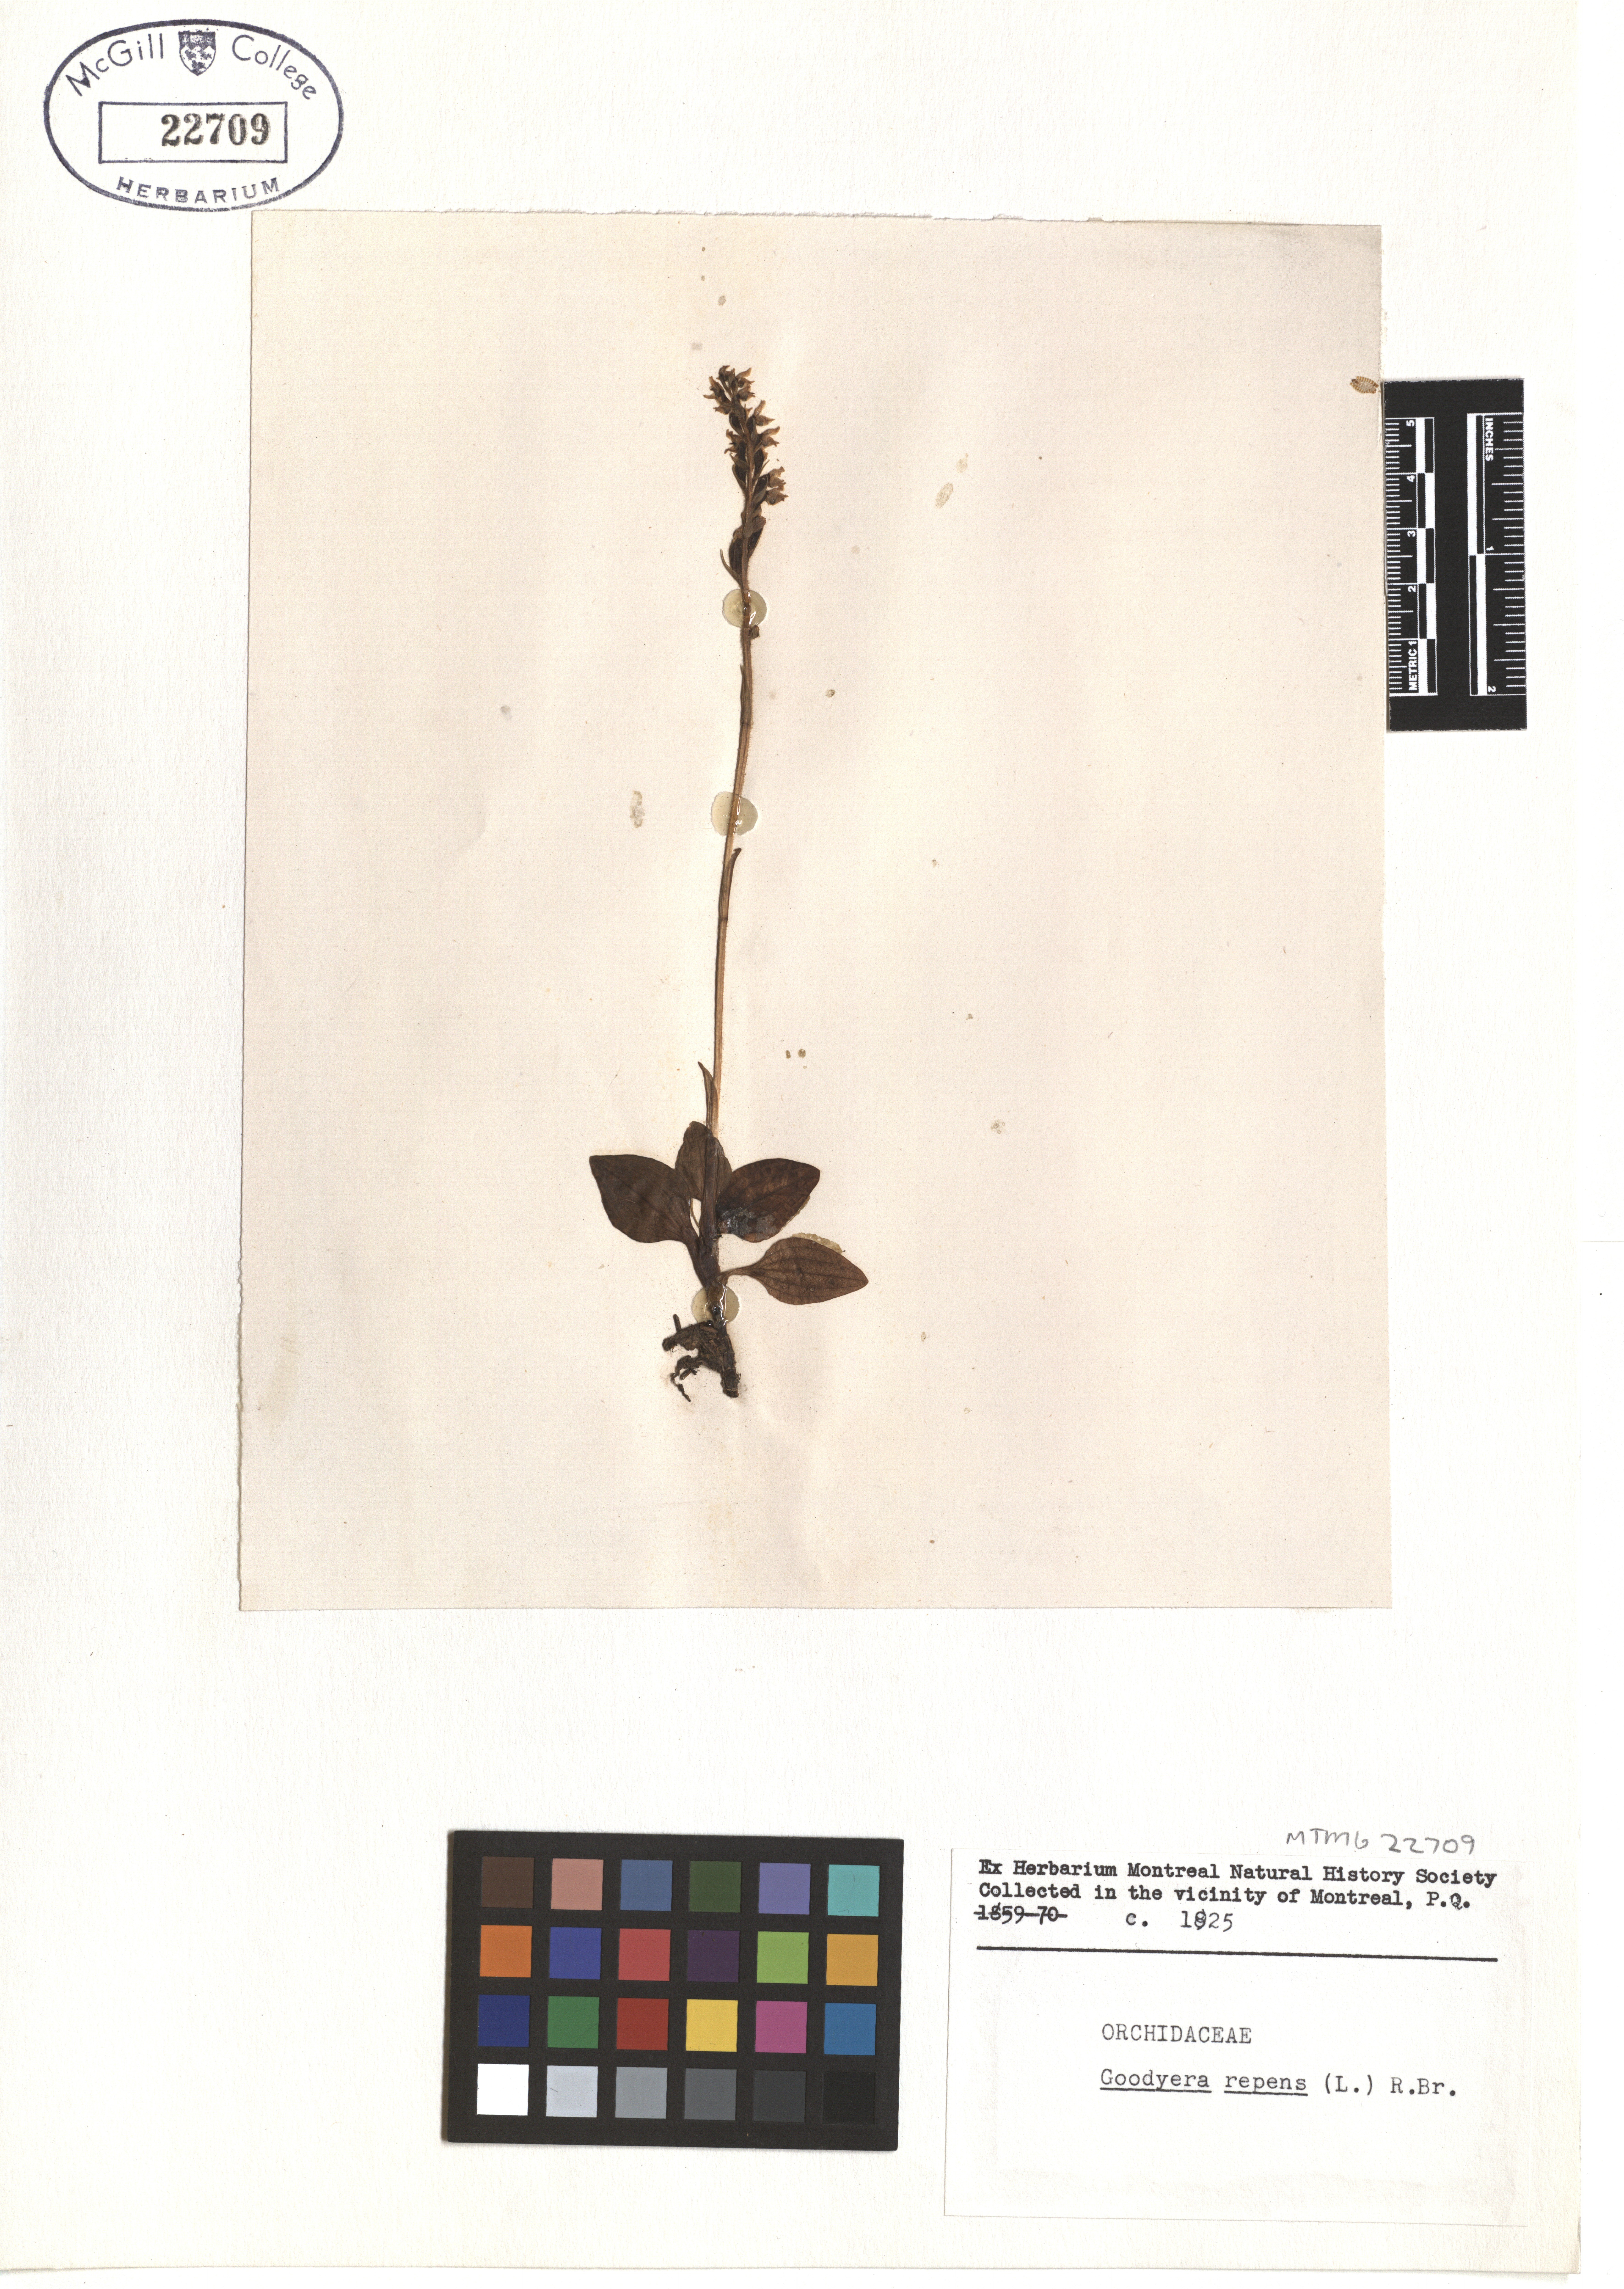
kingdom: Plantae
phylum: Tracheophyta
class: Liliopsida
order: Asparagales
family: Orchidaceae
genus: Goodyera
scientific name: Goodyera repens
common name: Creeping lady's-tresses
